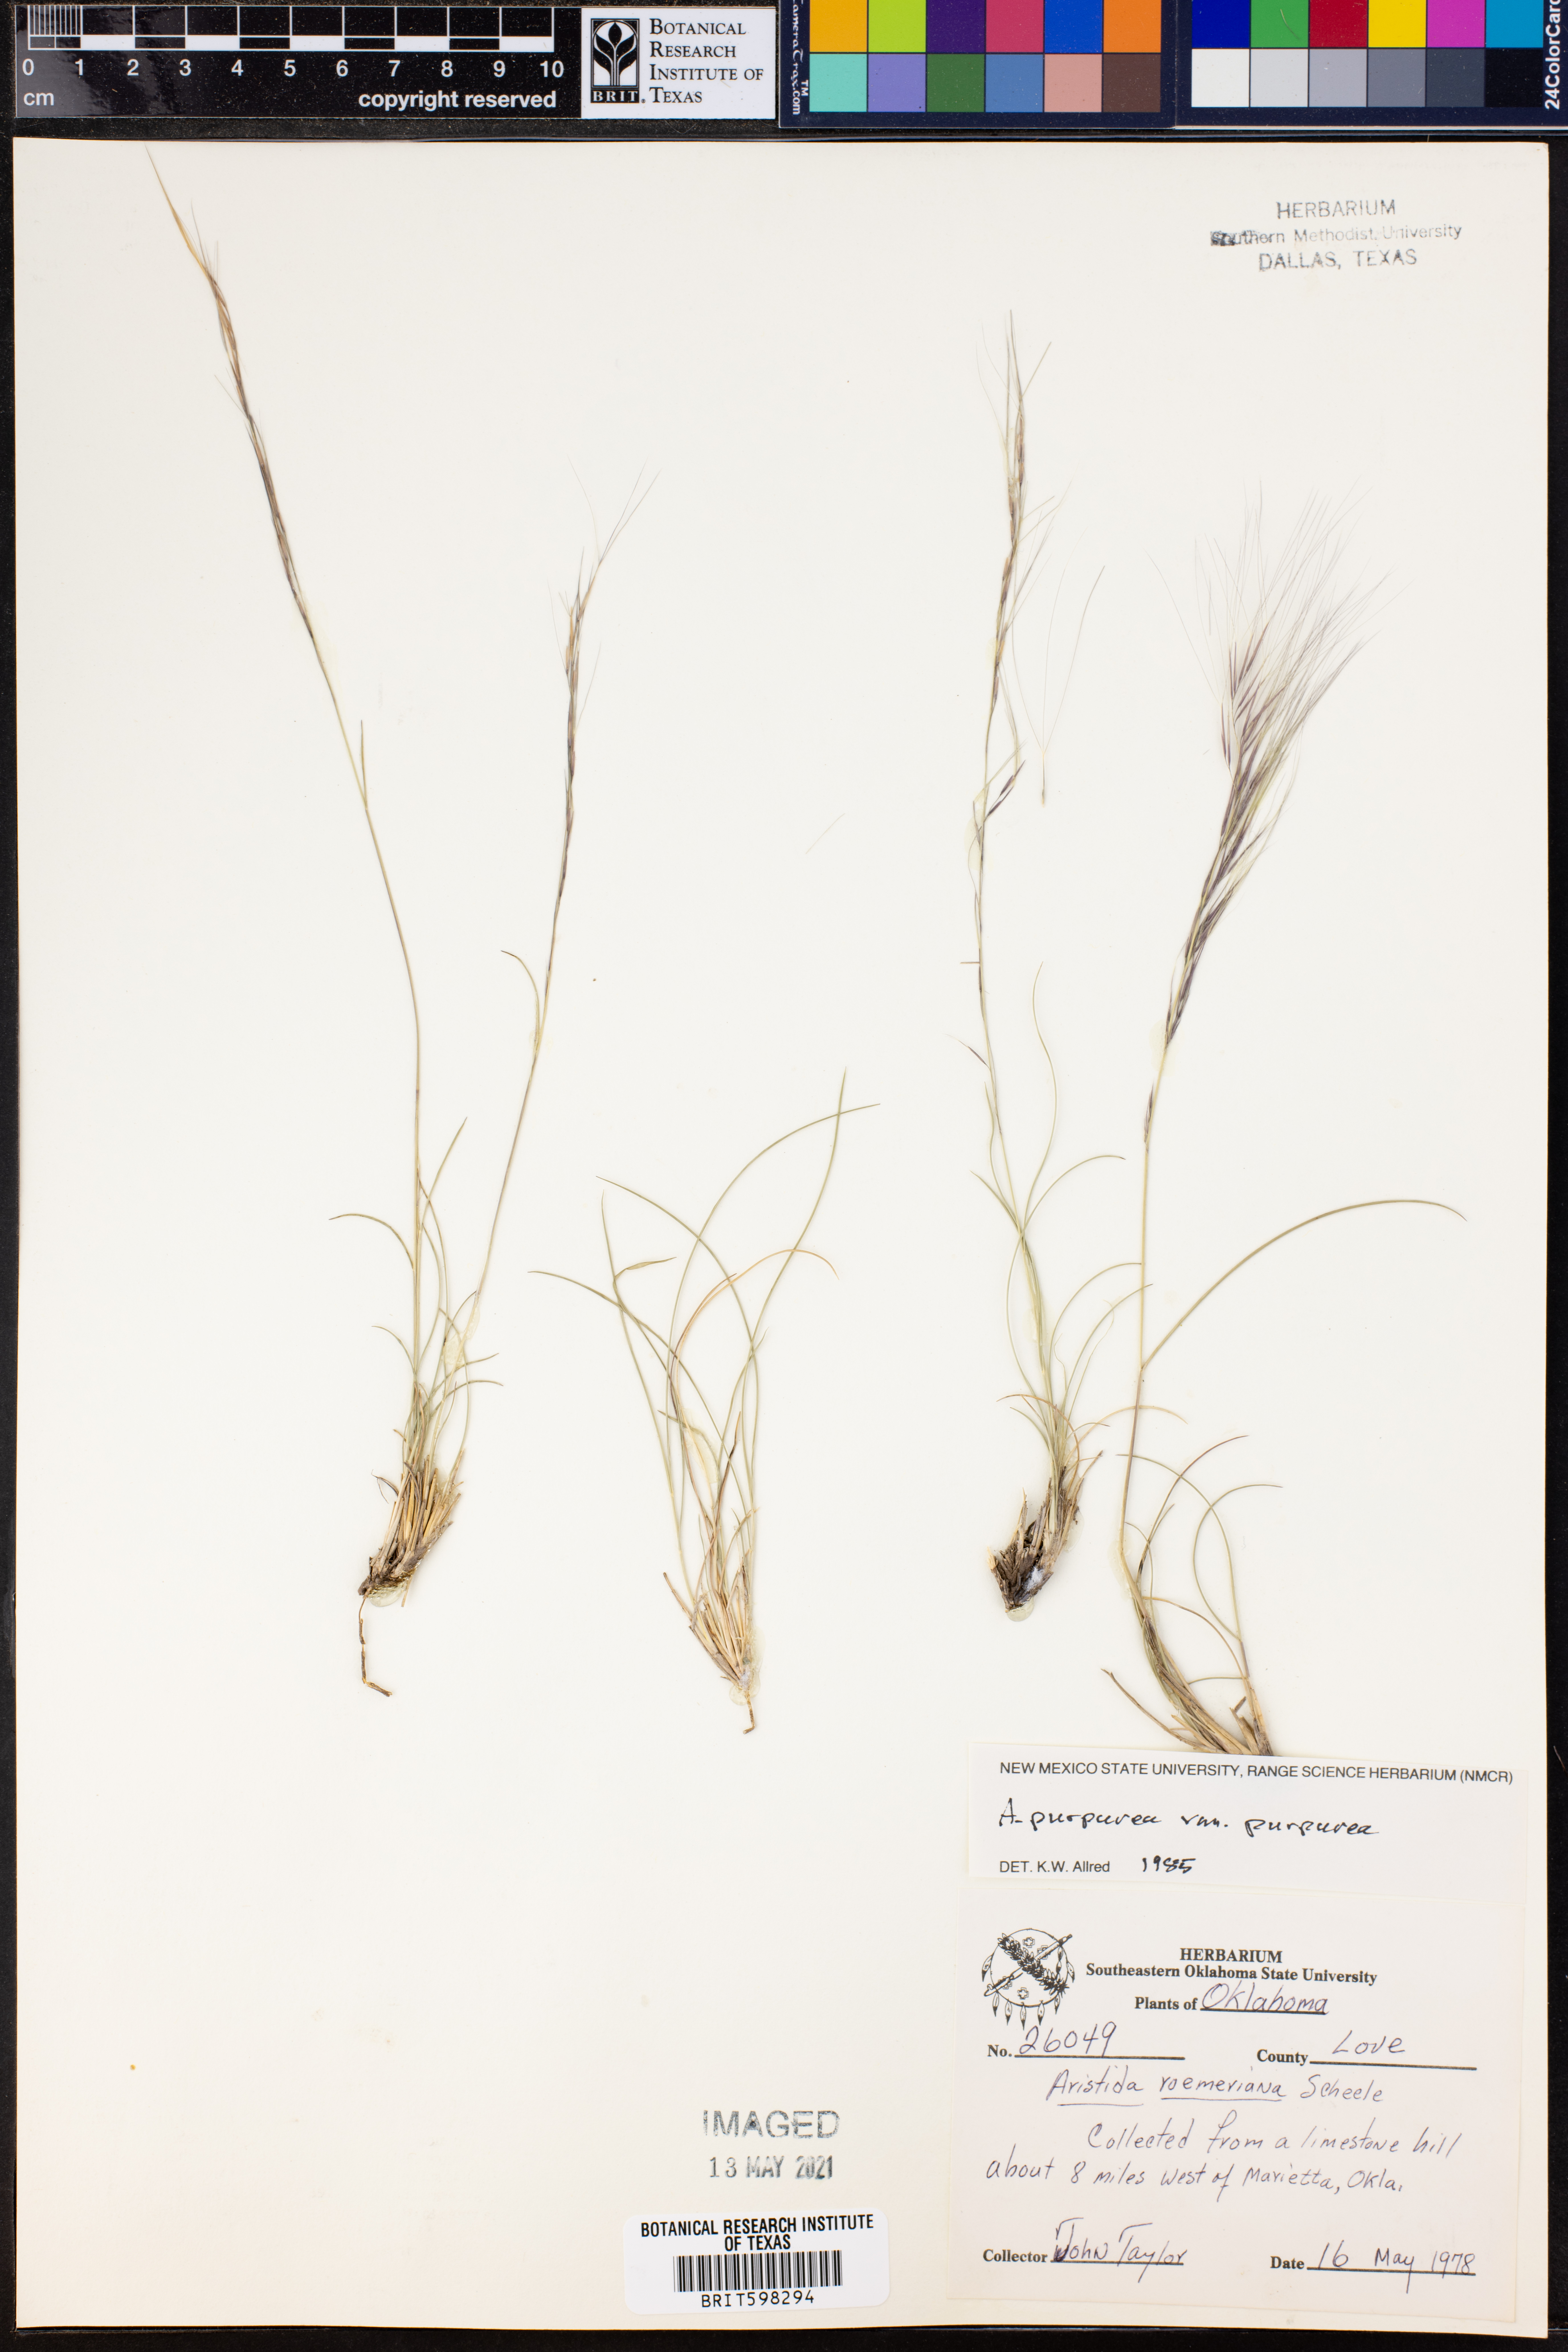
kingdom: Plantae
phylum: Tracheophyta
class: Liliopsida
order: Poales
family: Poaceae
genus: Aristida
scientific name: Aristida purpurea
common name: Purple threeawn
